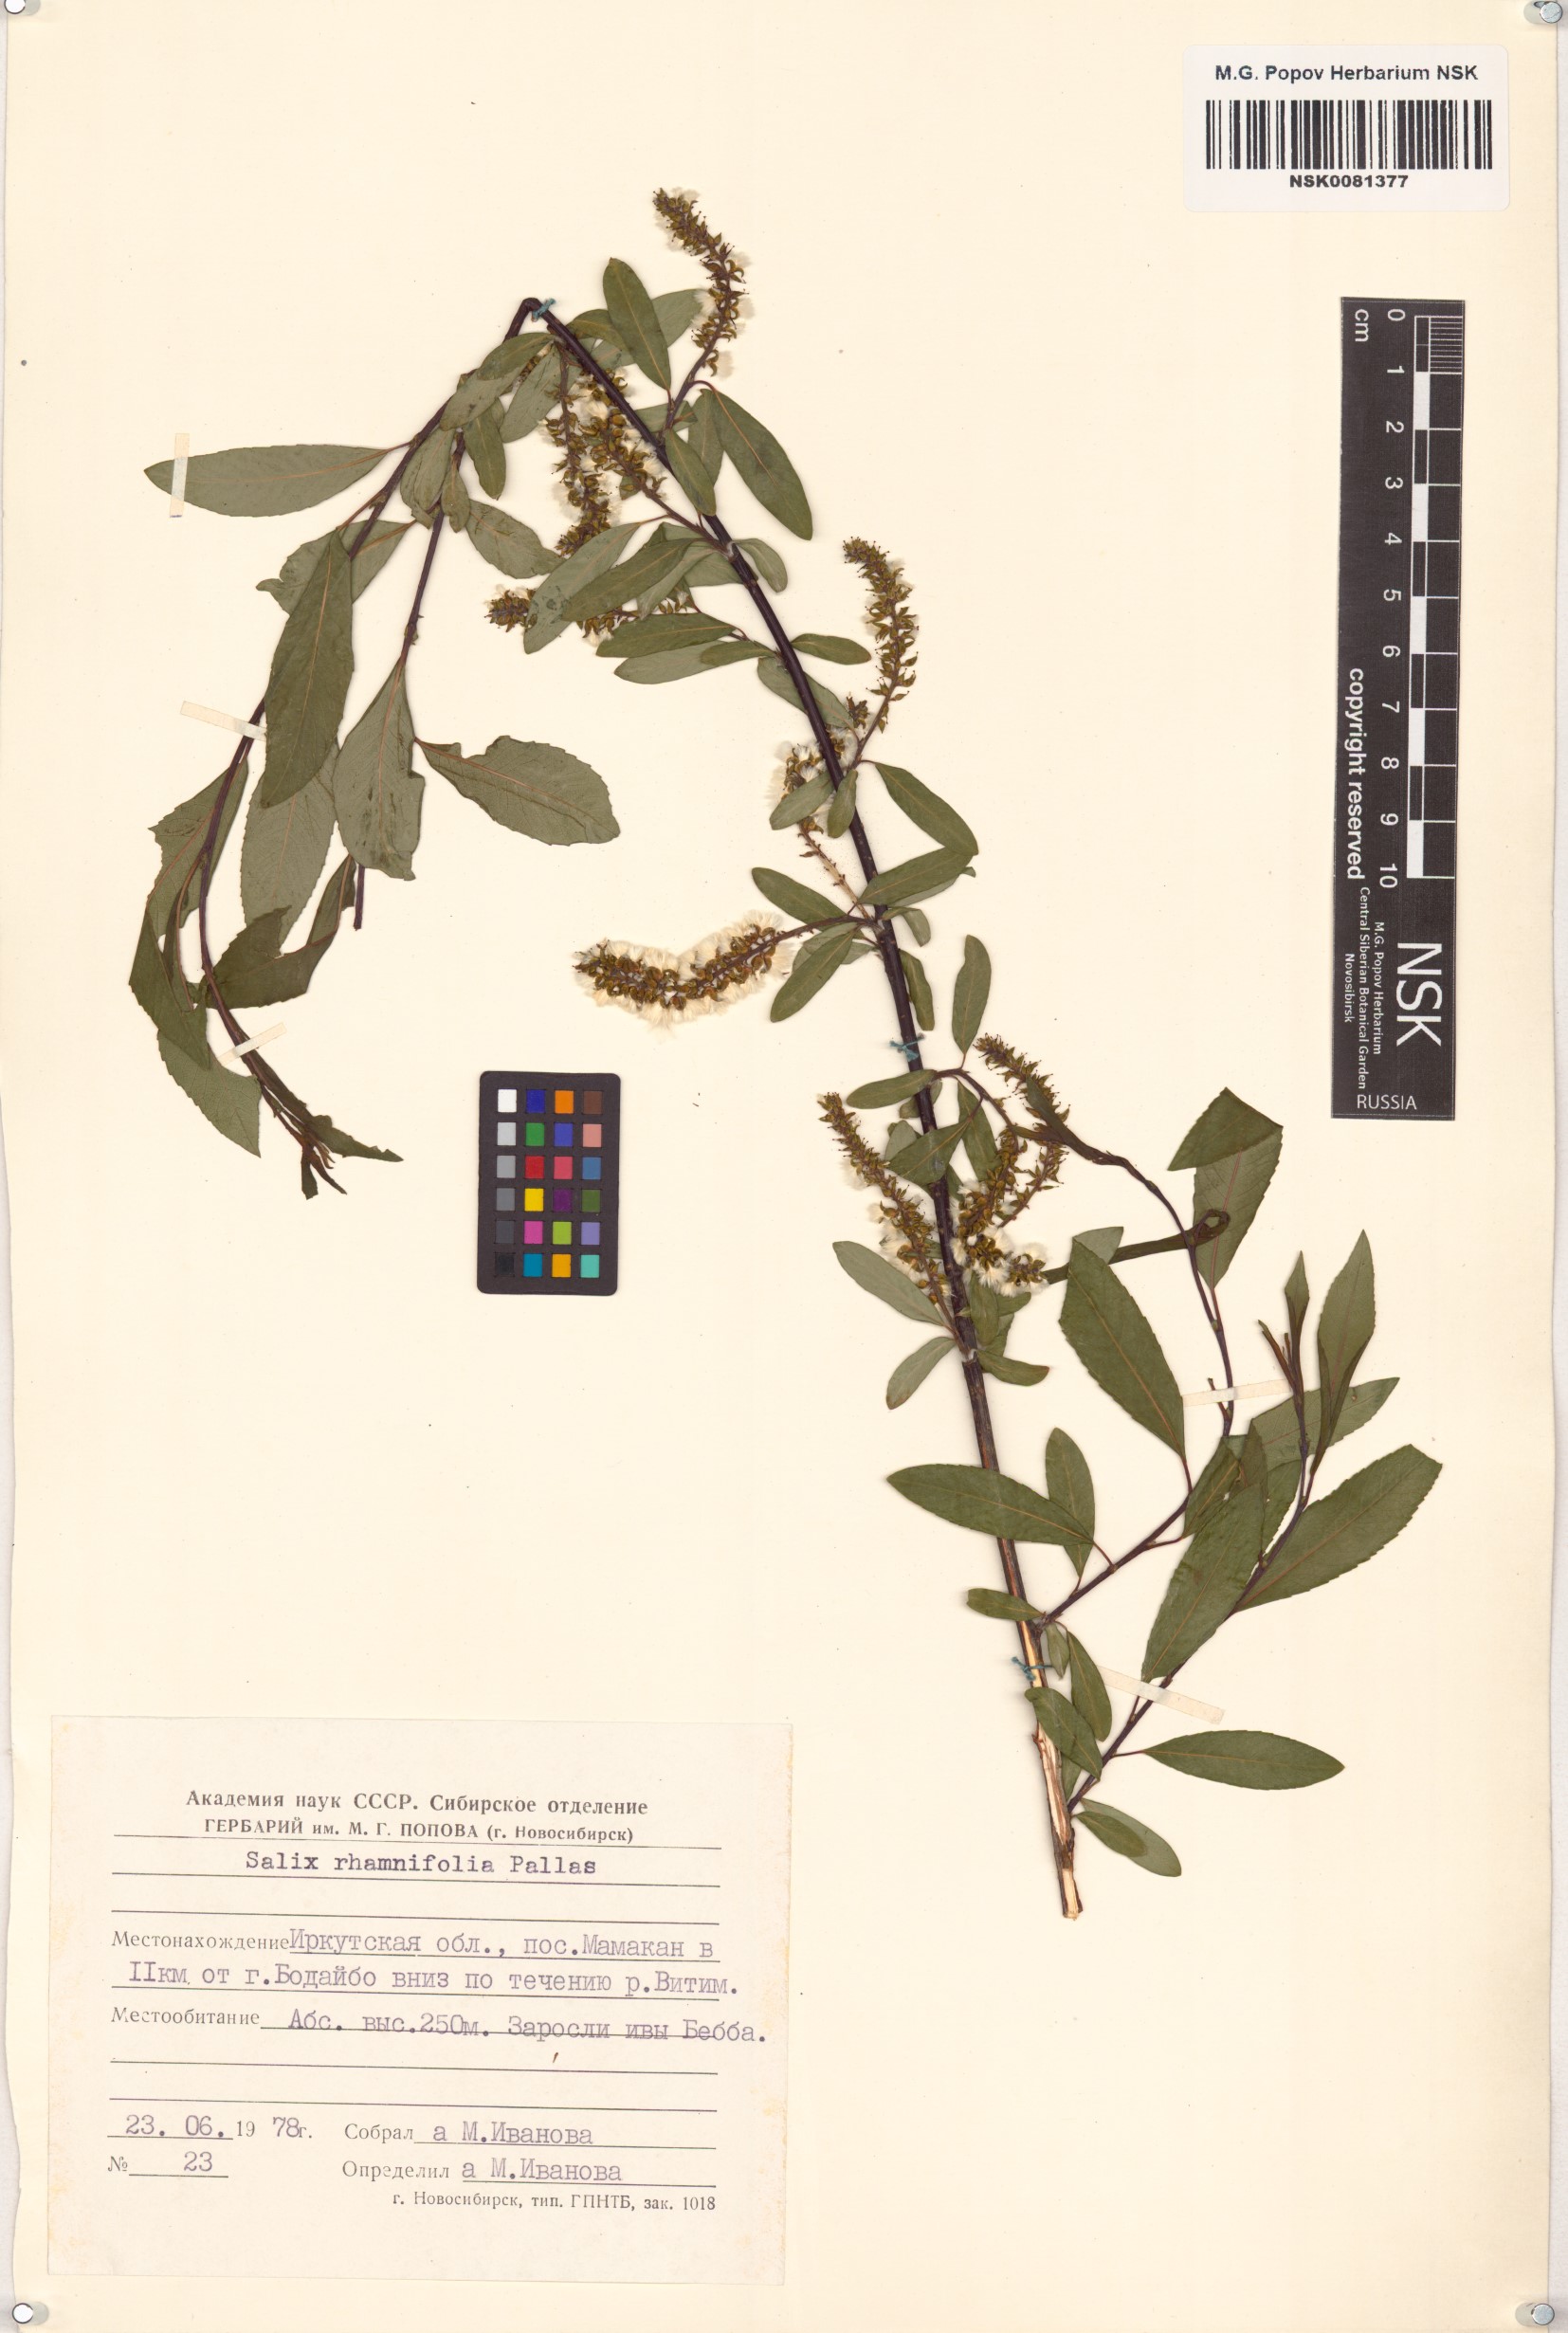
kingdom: Plantae
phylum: Tracheophyta
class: Magnoliopsida
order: Malpighiales
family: Salicaceae
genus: Salix
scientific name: Salix rhamnifolia
